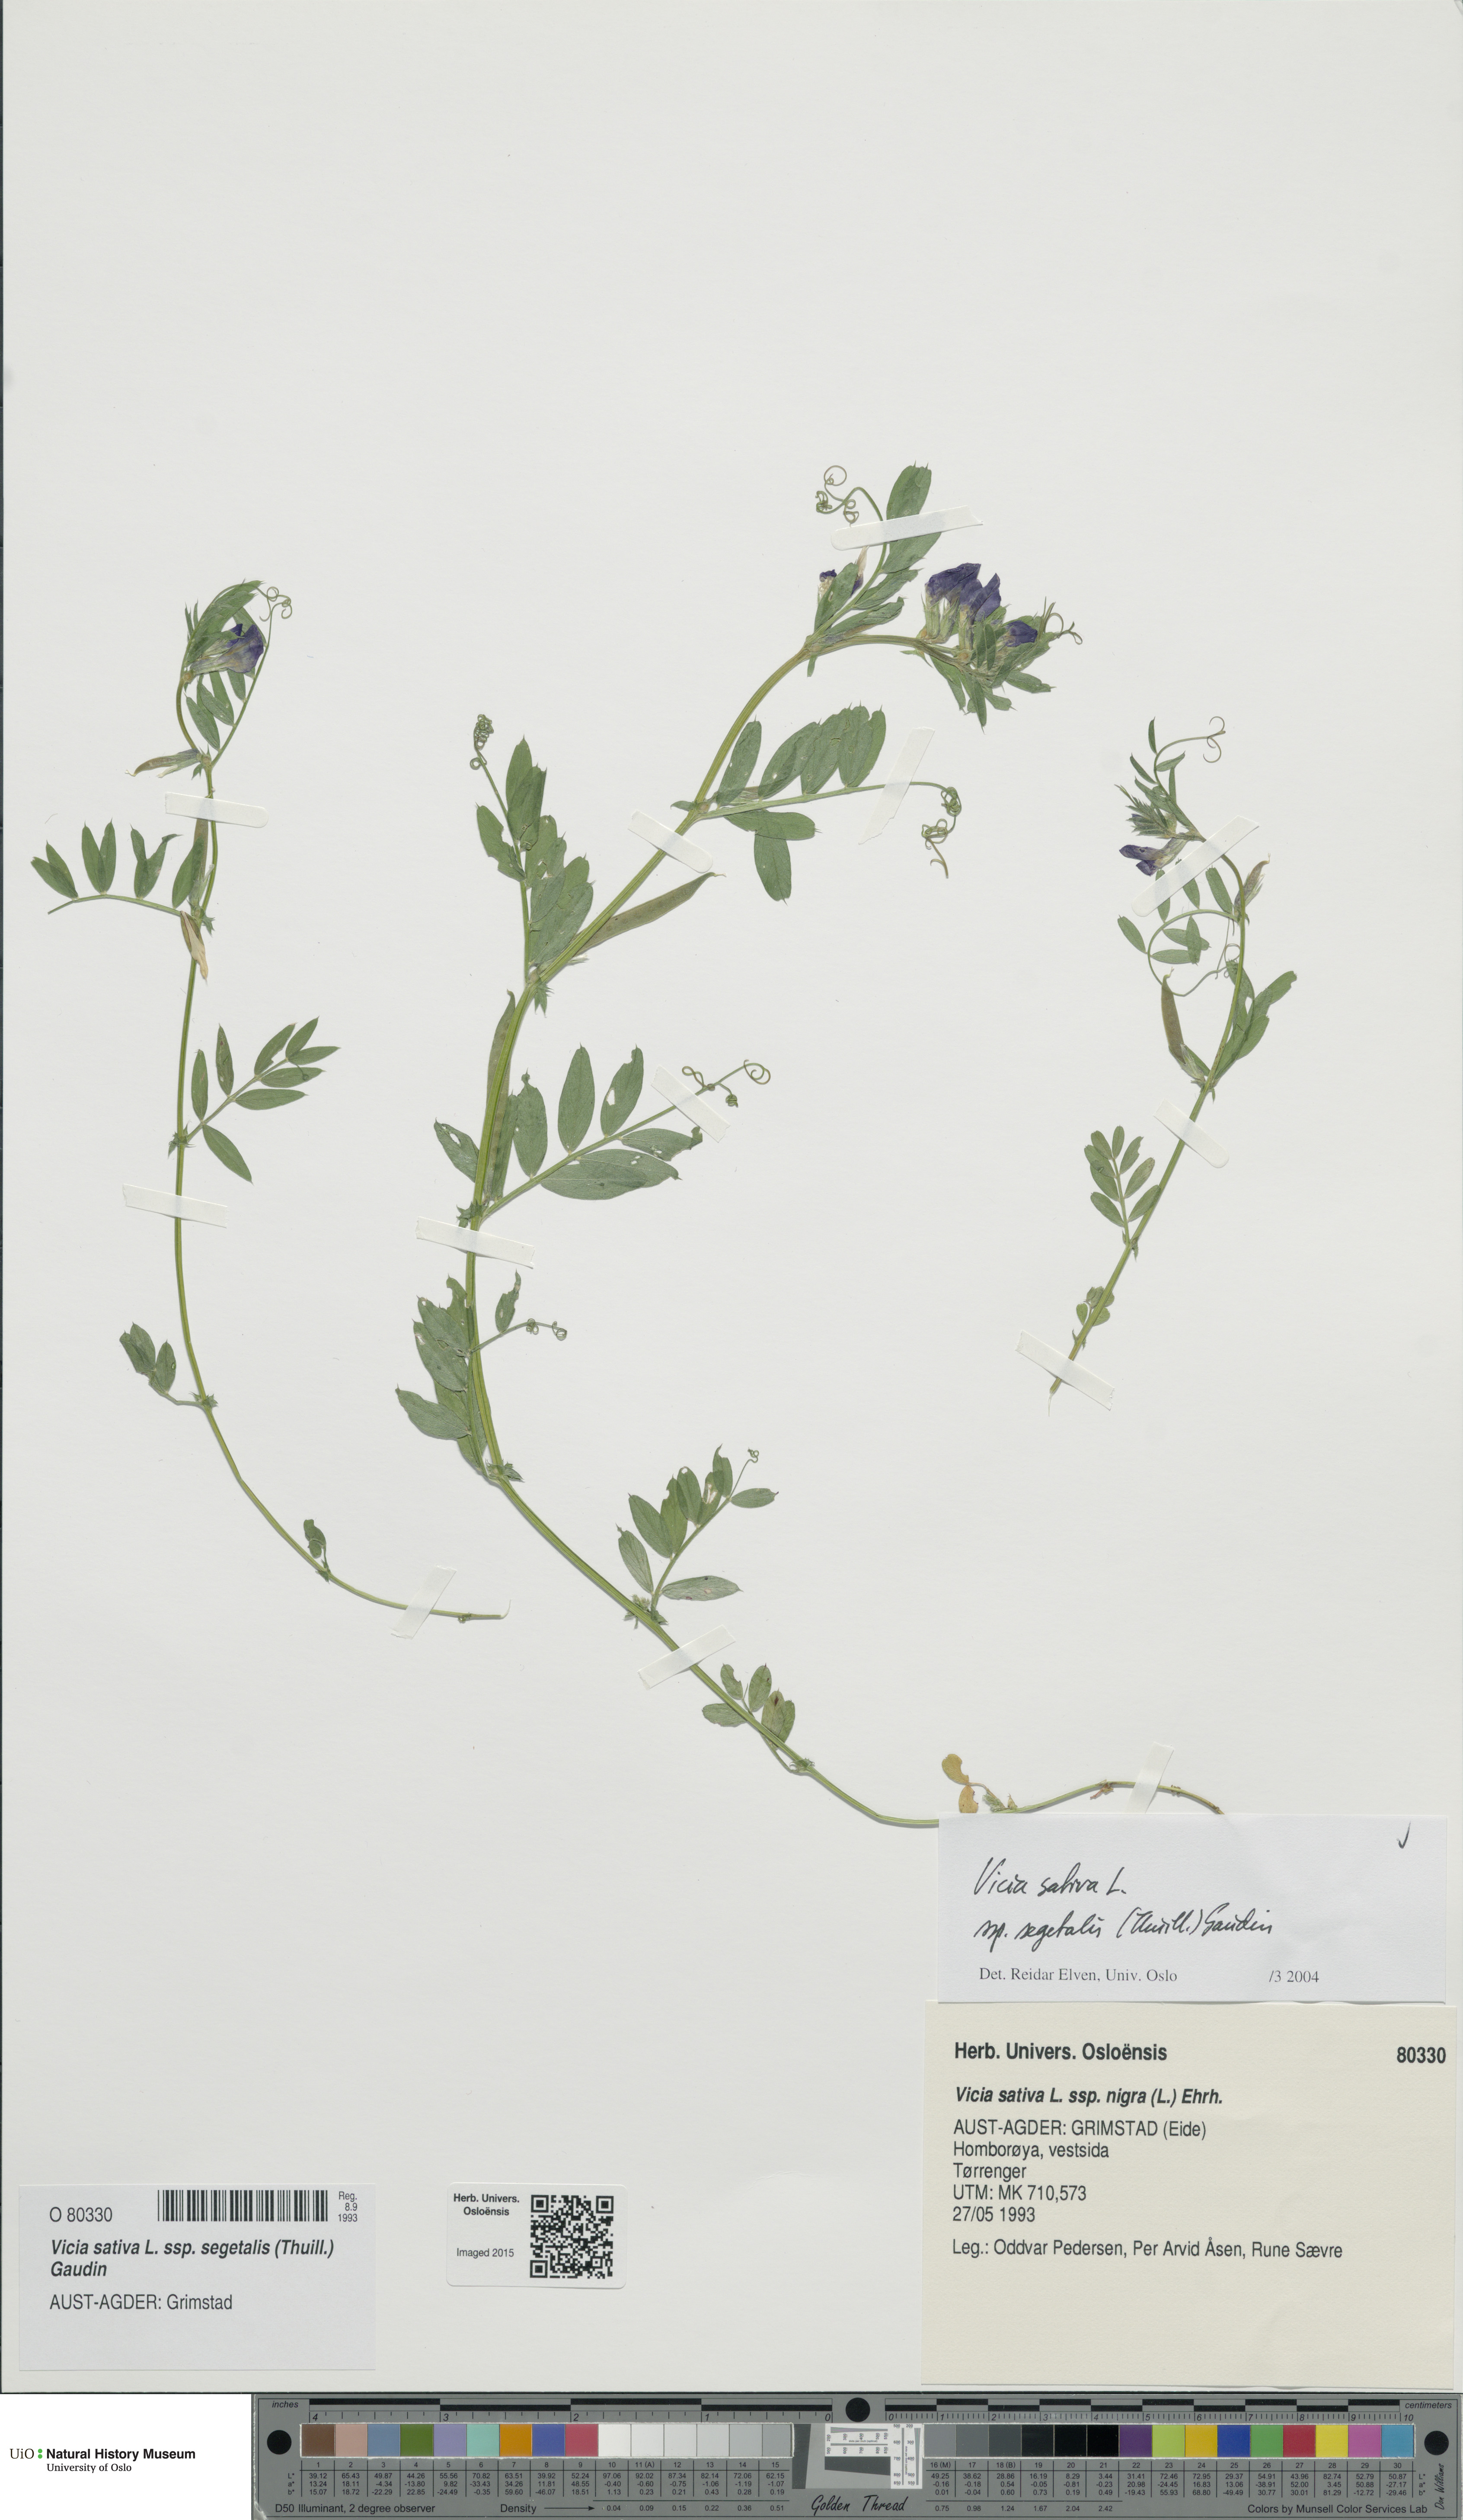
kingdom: Plantae
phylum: Tracheophyta
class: Magnoliopsida
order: Fabales
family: Fabaceae
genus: Vicia
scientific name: Vicia sativa
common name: Garden vetch
